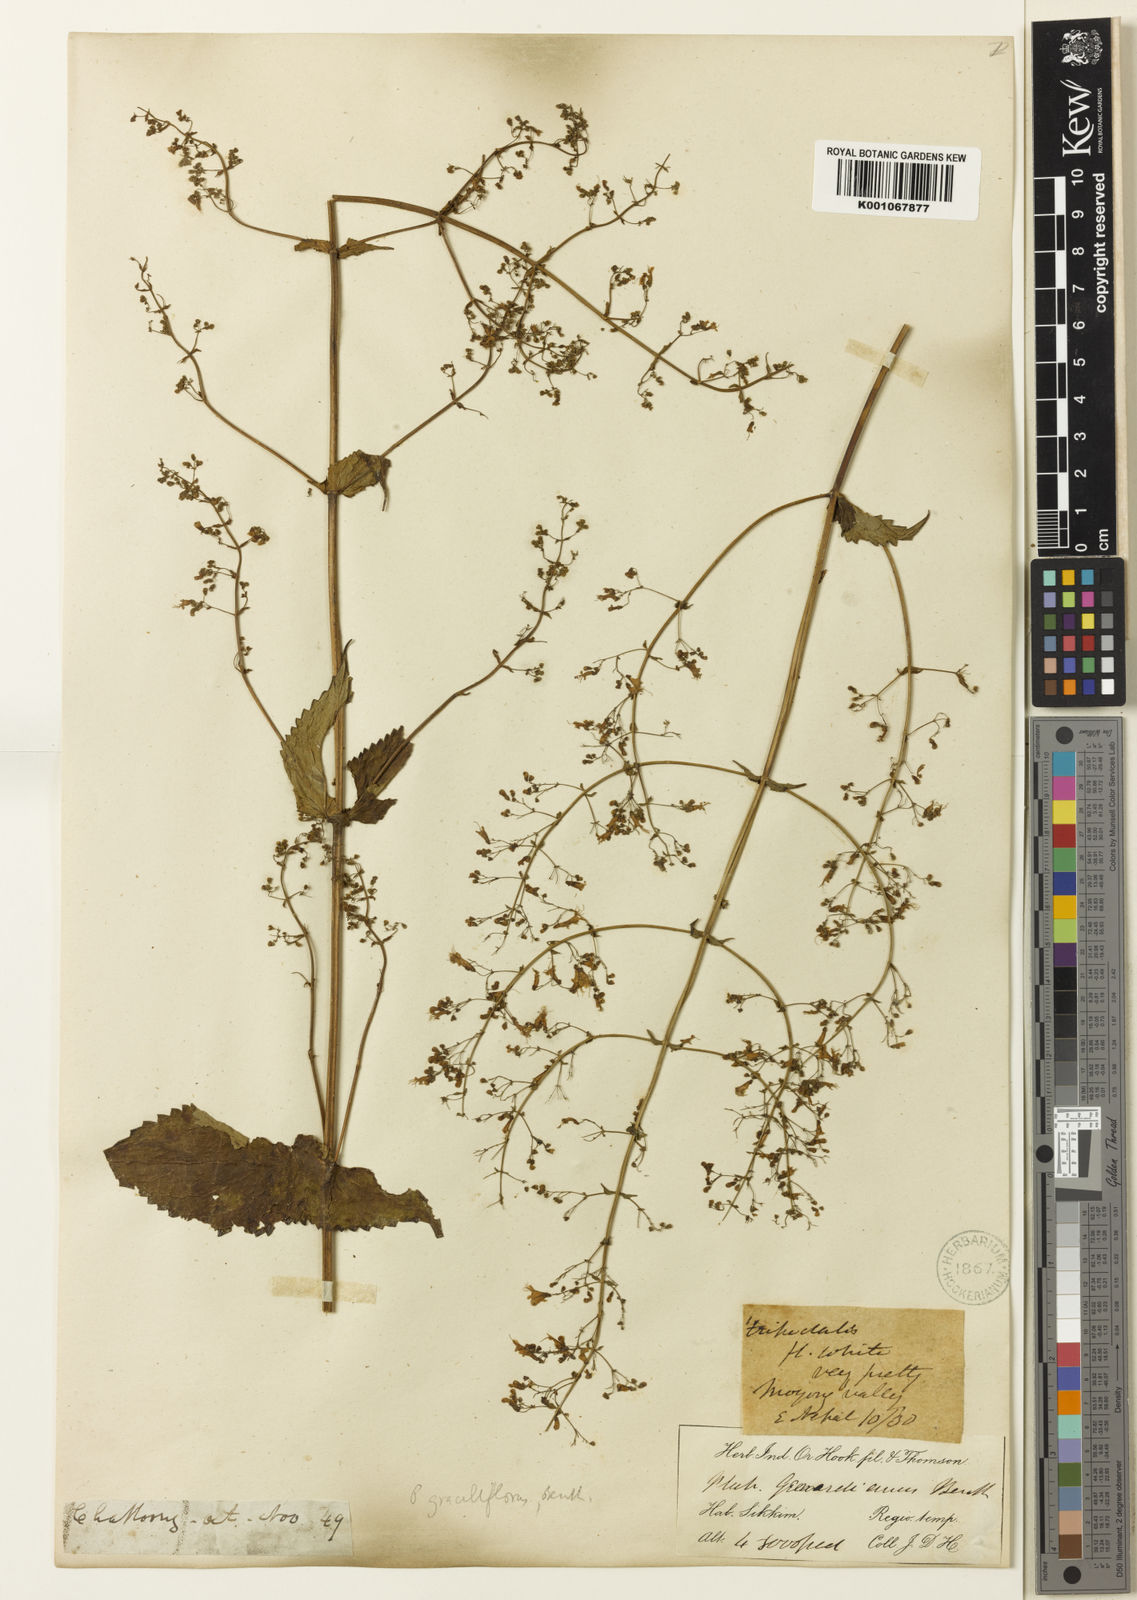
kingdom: Plantae
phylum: Tracheophyta
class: Magnoliopsida
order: Lamiales
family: Lamiaceae
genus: Isodon
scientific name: Isodon lophanthoides
